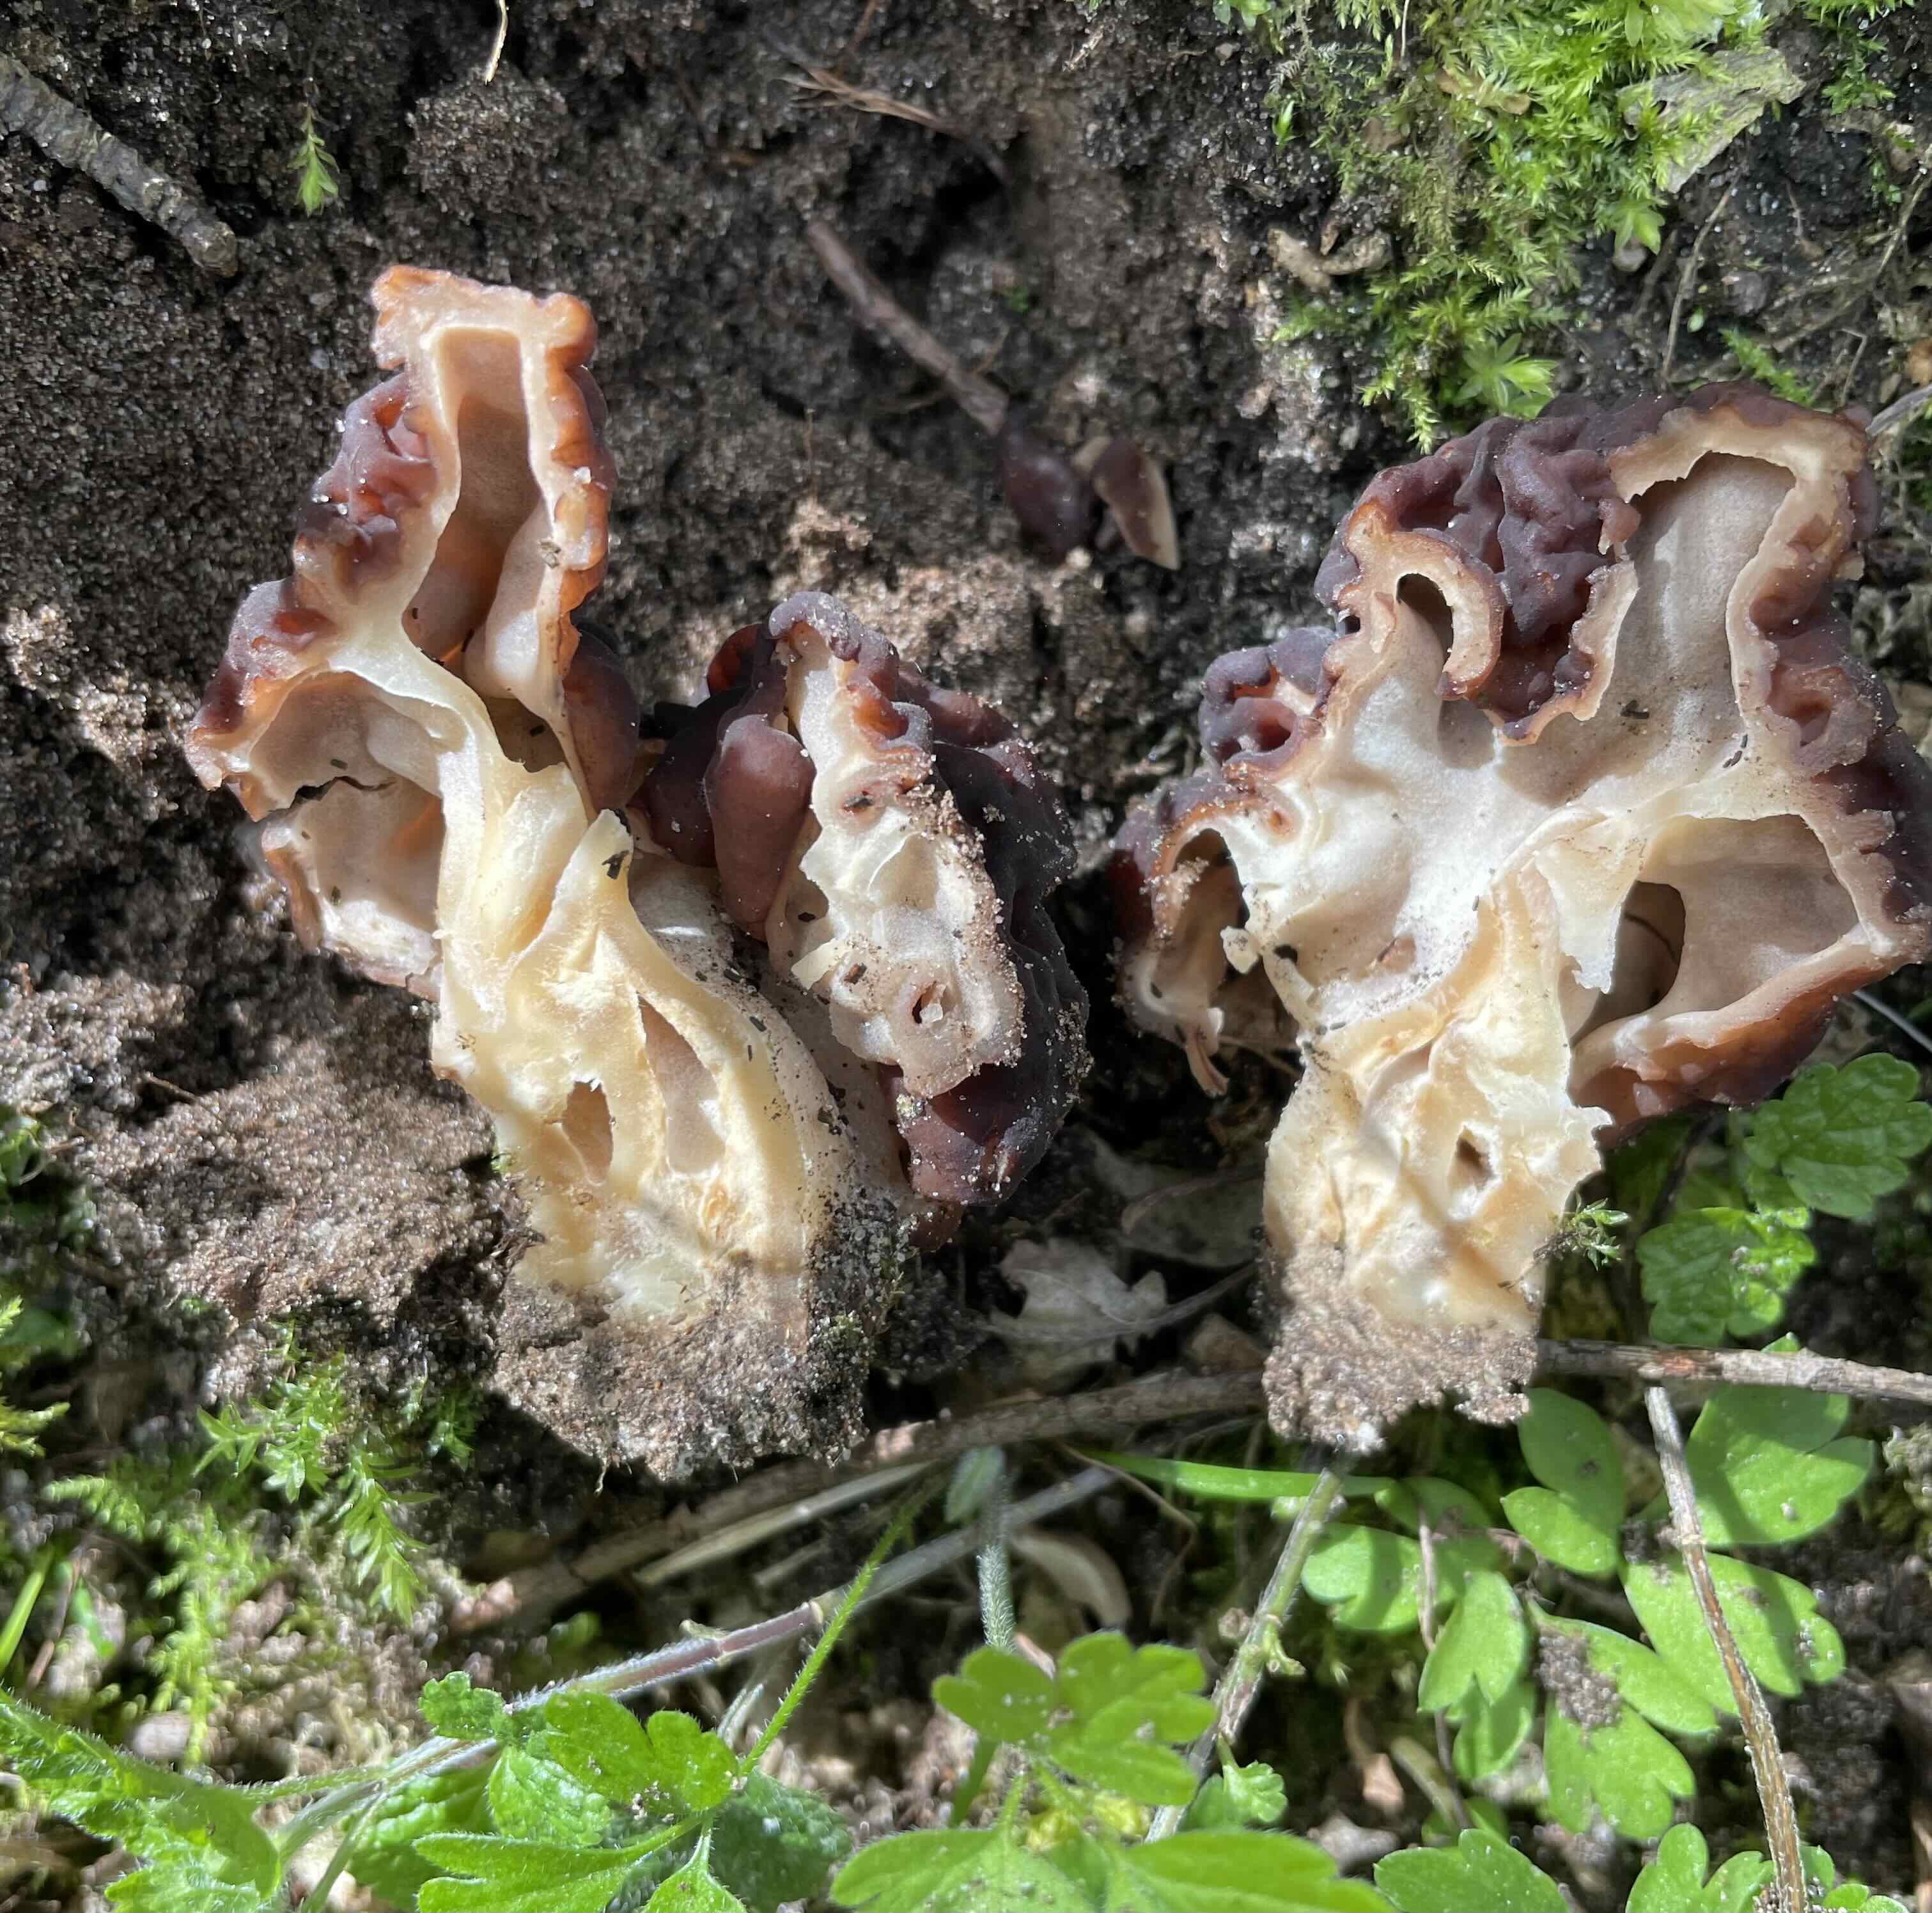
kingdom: Fungi
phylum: Ascomycota
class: Pezizomycetes
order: Pezizales
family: Discinaceae
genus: Gyromitra
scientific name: Gyromitra esculenta
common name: ægte stenmorkel
